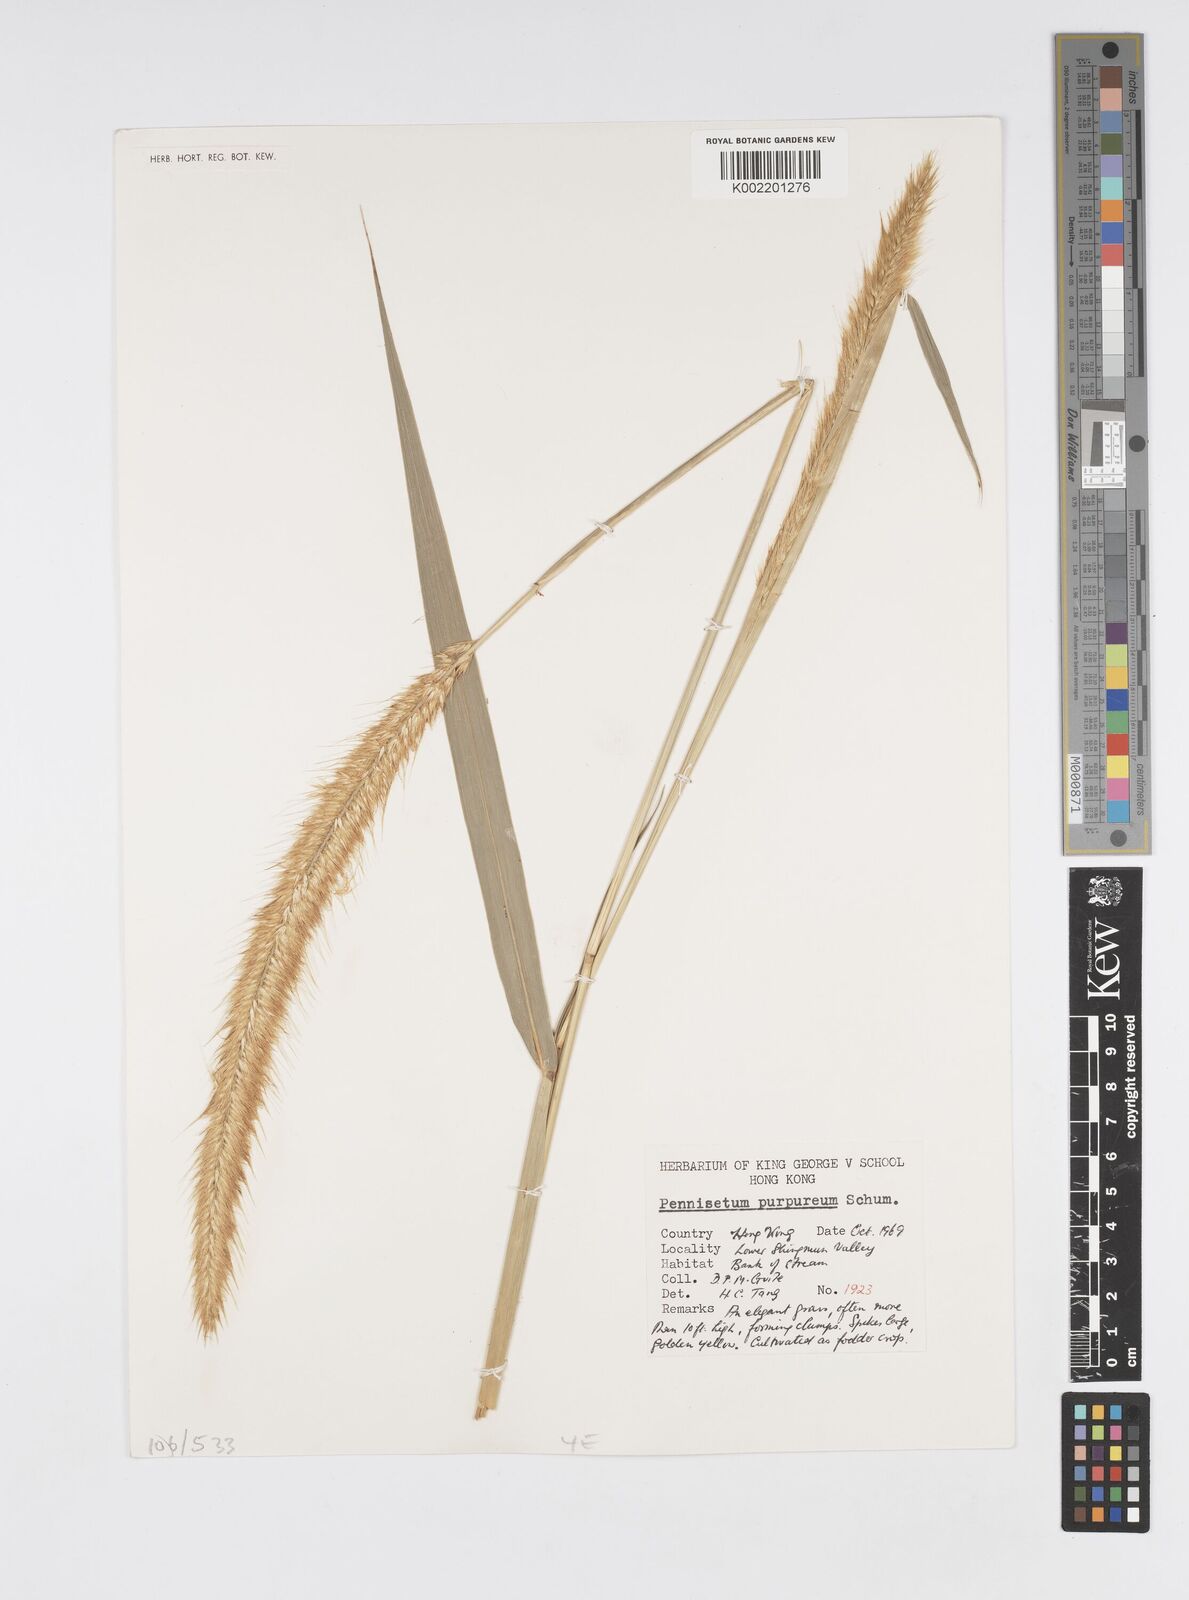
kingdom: Plantae
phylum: Tracheophyta
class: Liliopsida
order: Poales
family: Poaceae
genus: Cenchrus
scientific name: Cenchrus purpureus
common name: Elephant grass
